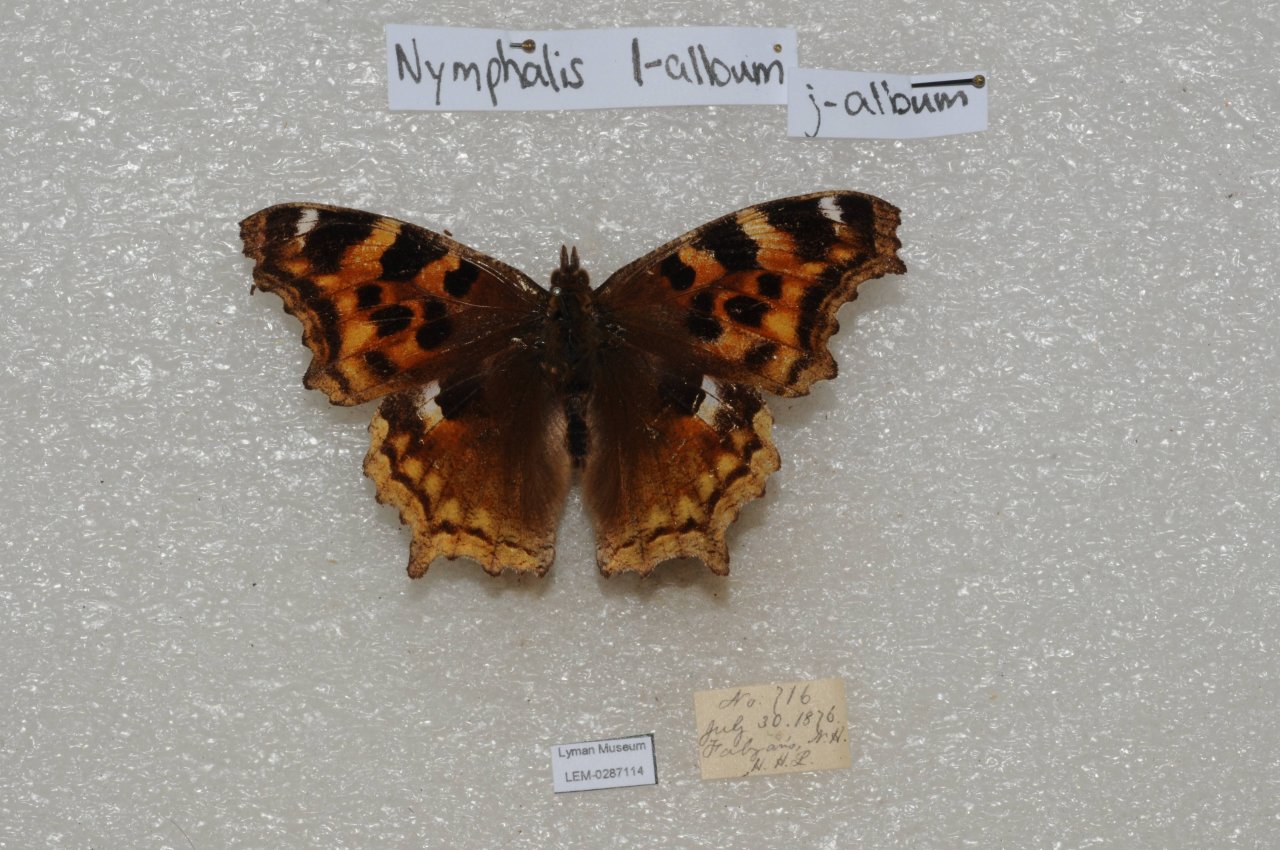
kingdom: Animalia
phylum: Arthropoda
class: Insecta
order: Lepidoptera
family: Nymphalidae
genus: Polygonia
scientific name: Polygonia vaualbum
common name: Compton Tortoiseshell
